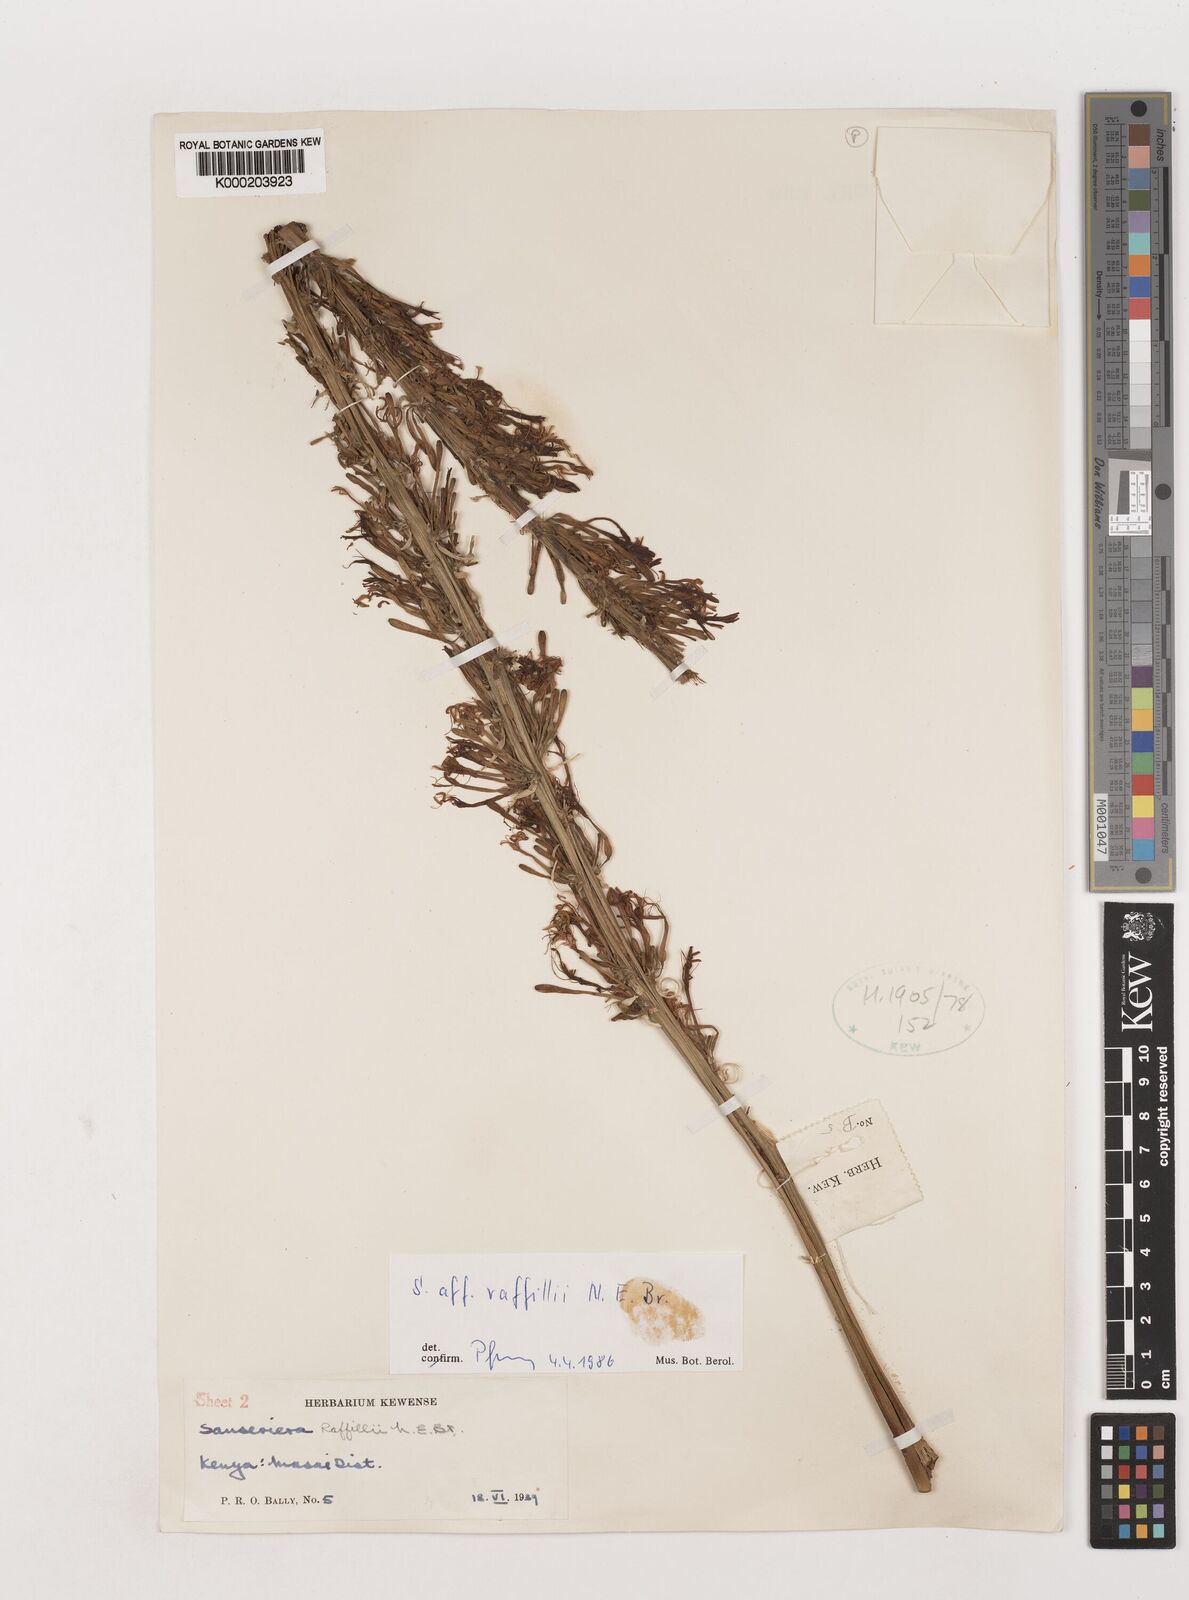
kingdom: Plantae
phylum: Tracheophyta
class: Liliopsida
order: Asparagales
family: Asparagaceae
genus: Dracaena
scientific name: Dracaena raffillii
